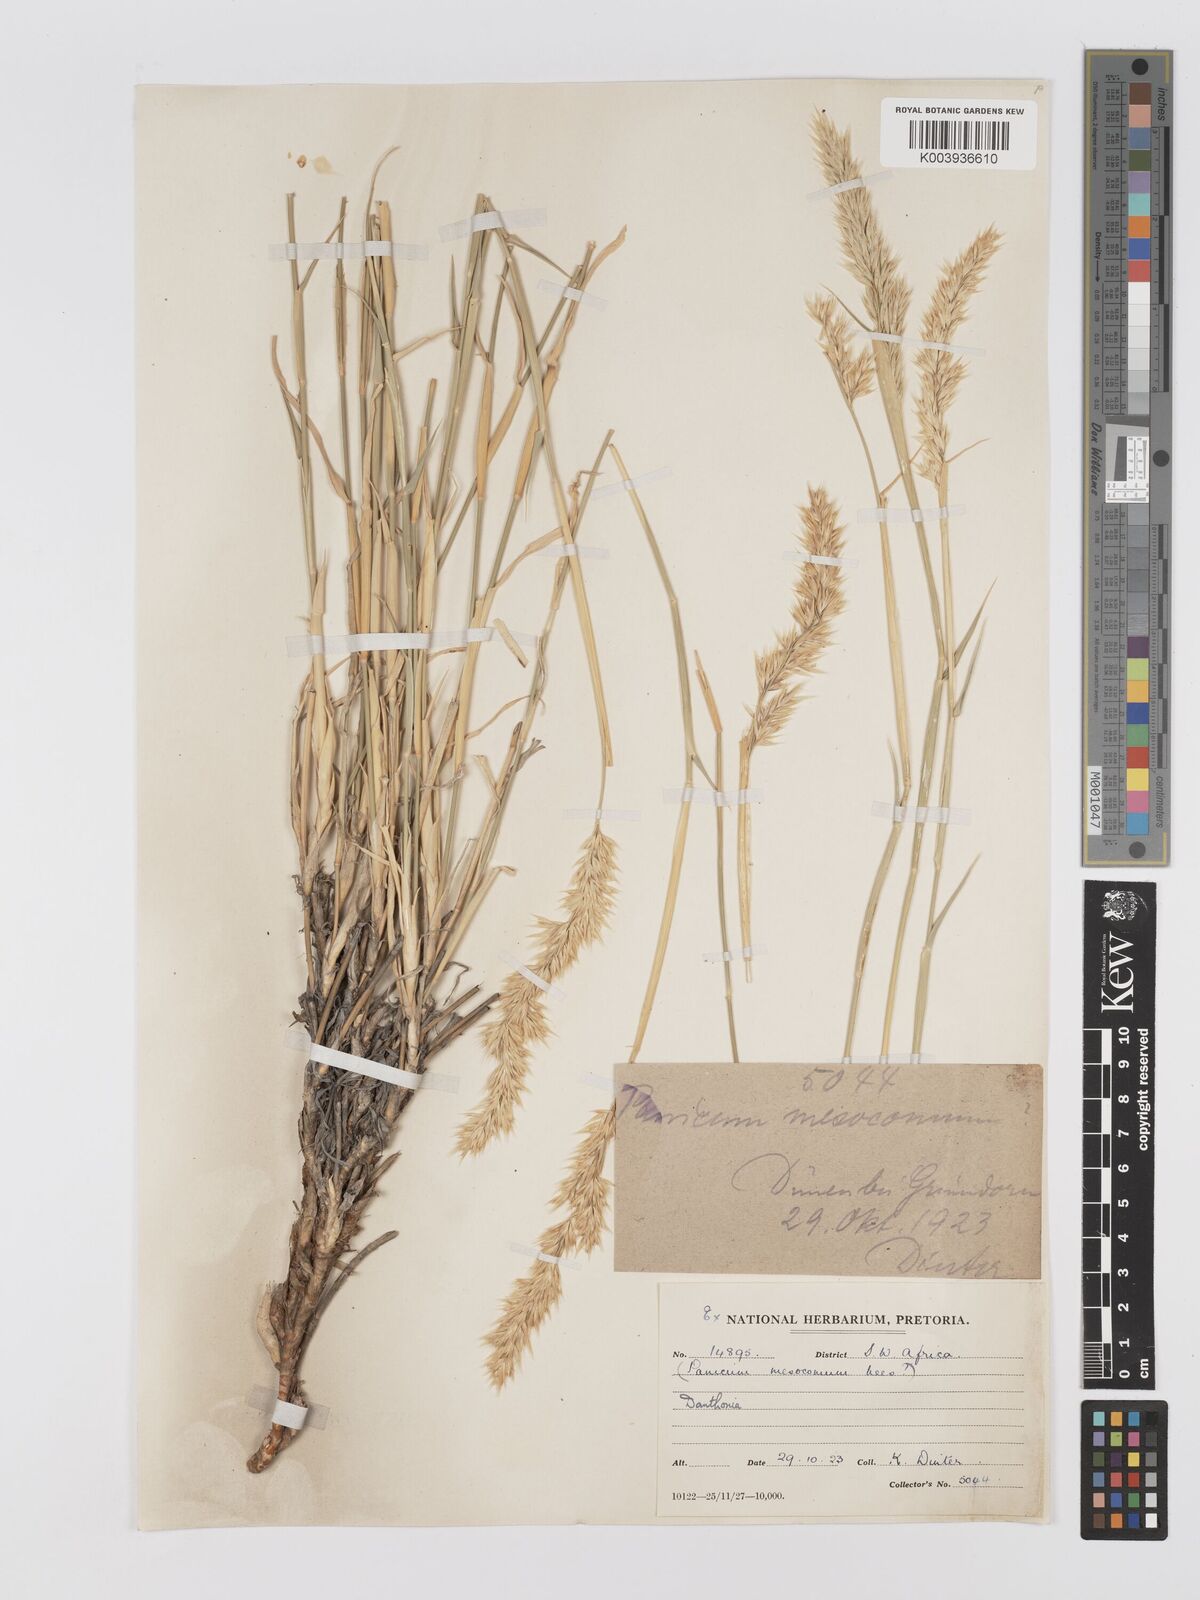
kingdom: Plantae
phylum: Tracheophyta
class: Liliopsida
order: Poales
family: Poaceae
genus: Centropodia
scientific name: Centropodia glauca
